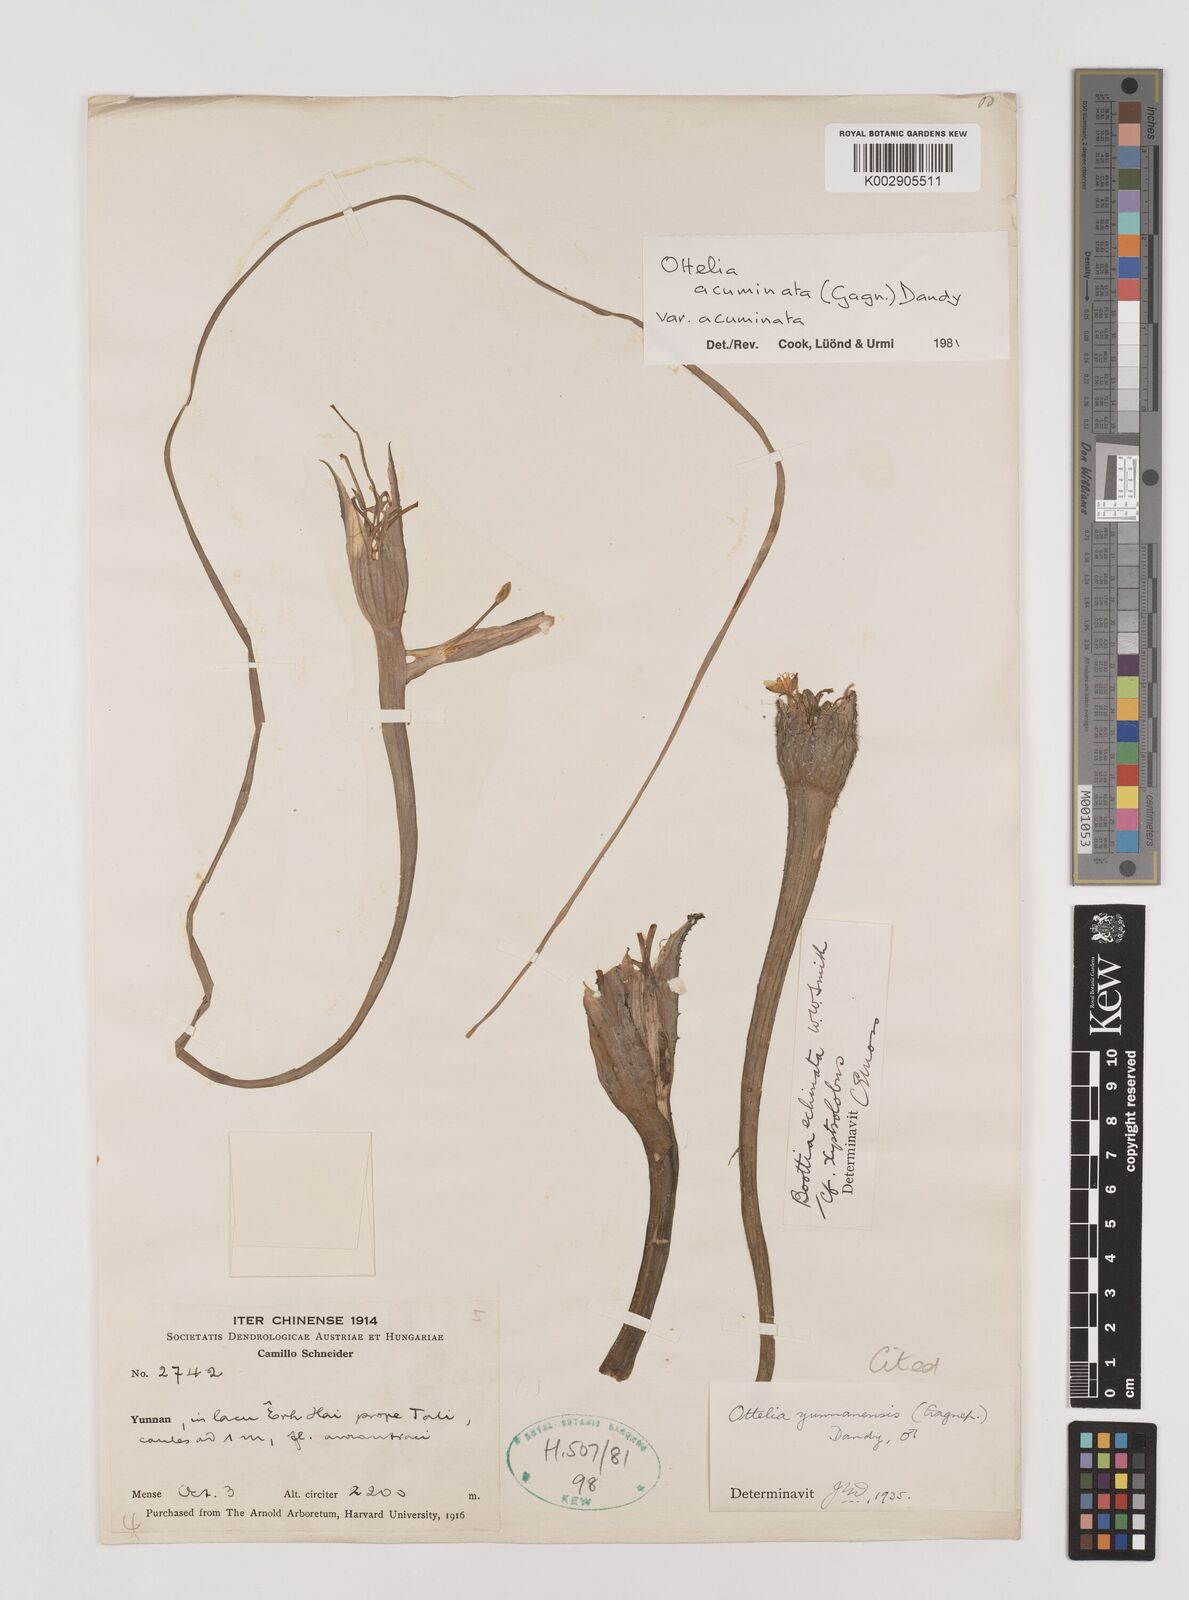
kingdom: Plantae
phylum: Tracheophyta
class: Liliopsida
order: Alismatales
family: Hydrocharitaceae
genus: Ottelia
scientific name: Ottelia acuminata
